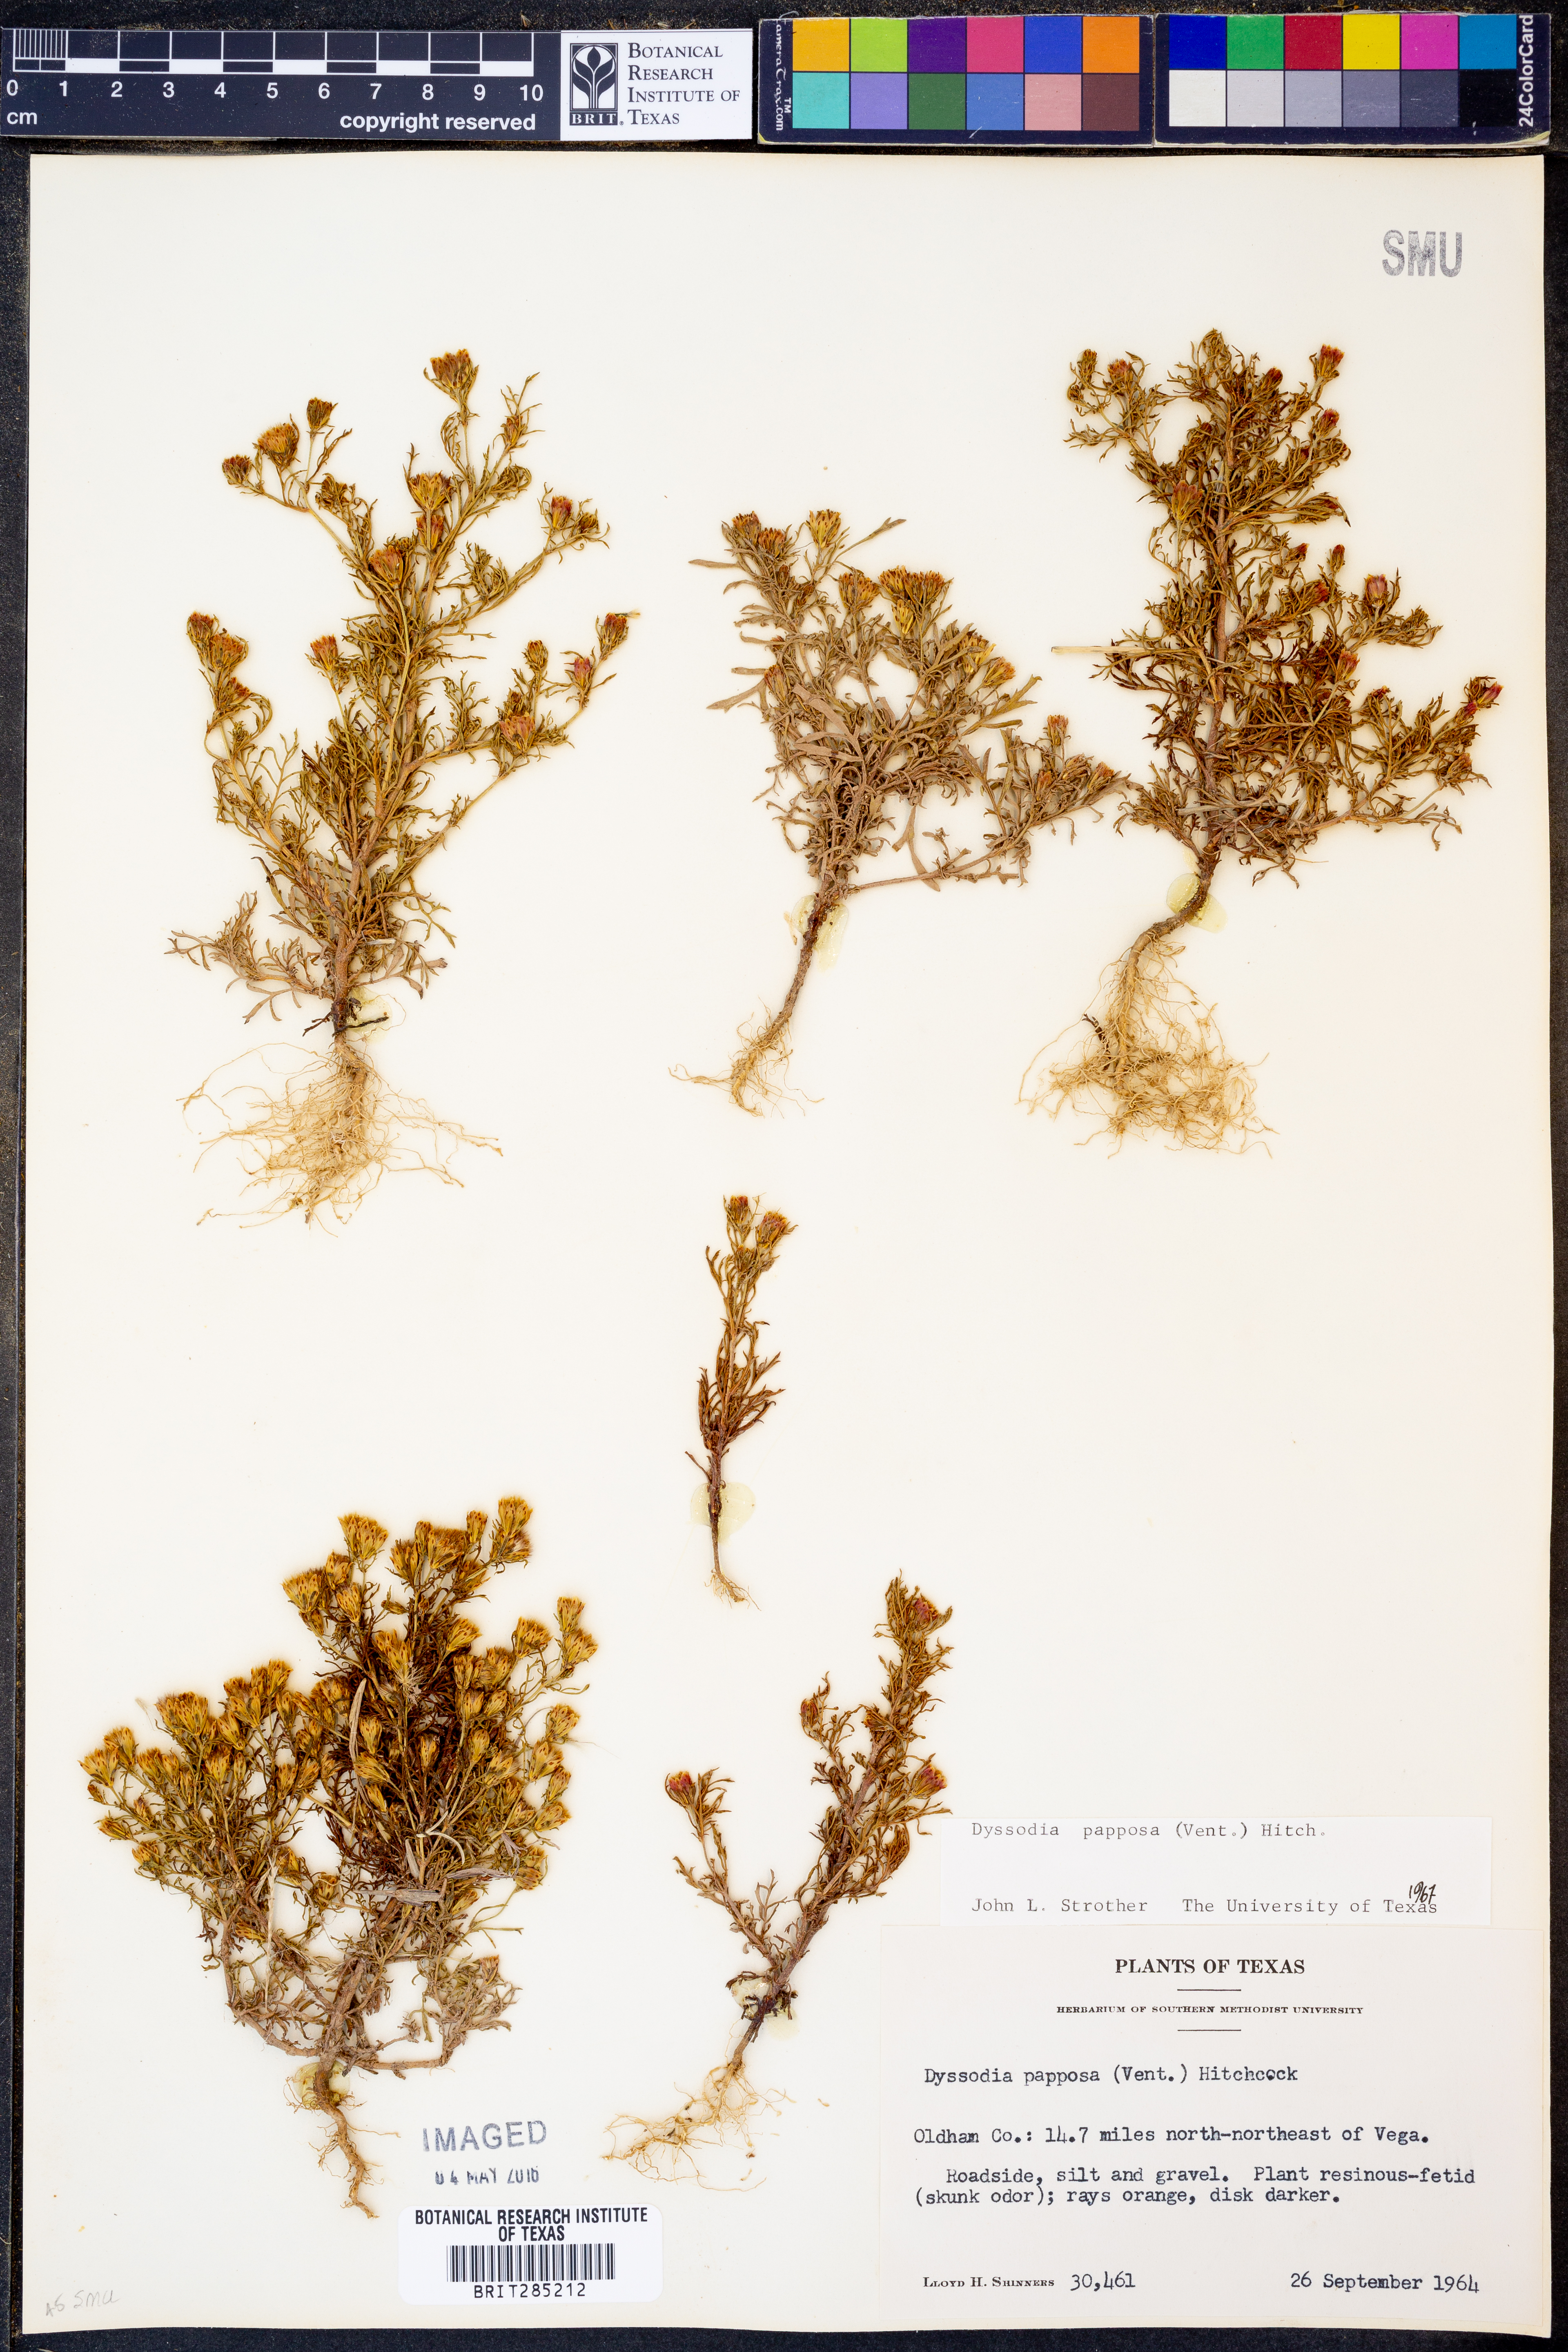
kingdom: Plantae
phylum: Tracheophyta
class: Magnoliopsida
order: Asterales
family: Asteraceae
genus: Dyssodia
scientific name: Dyssodia papposa
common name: Dogweed
